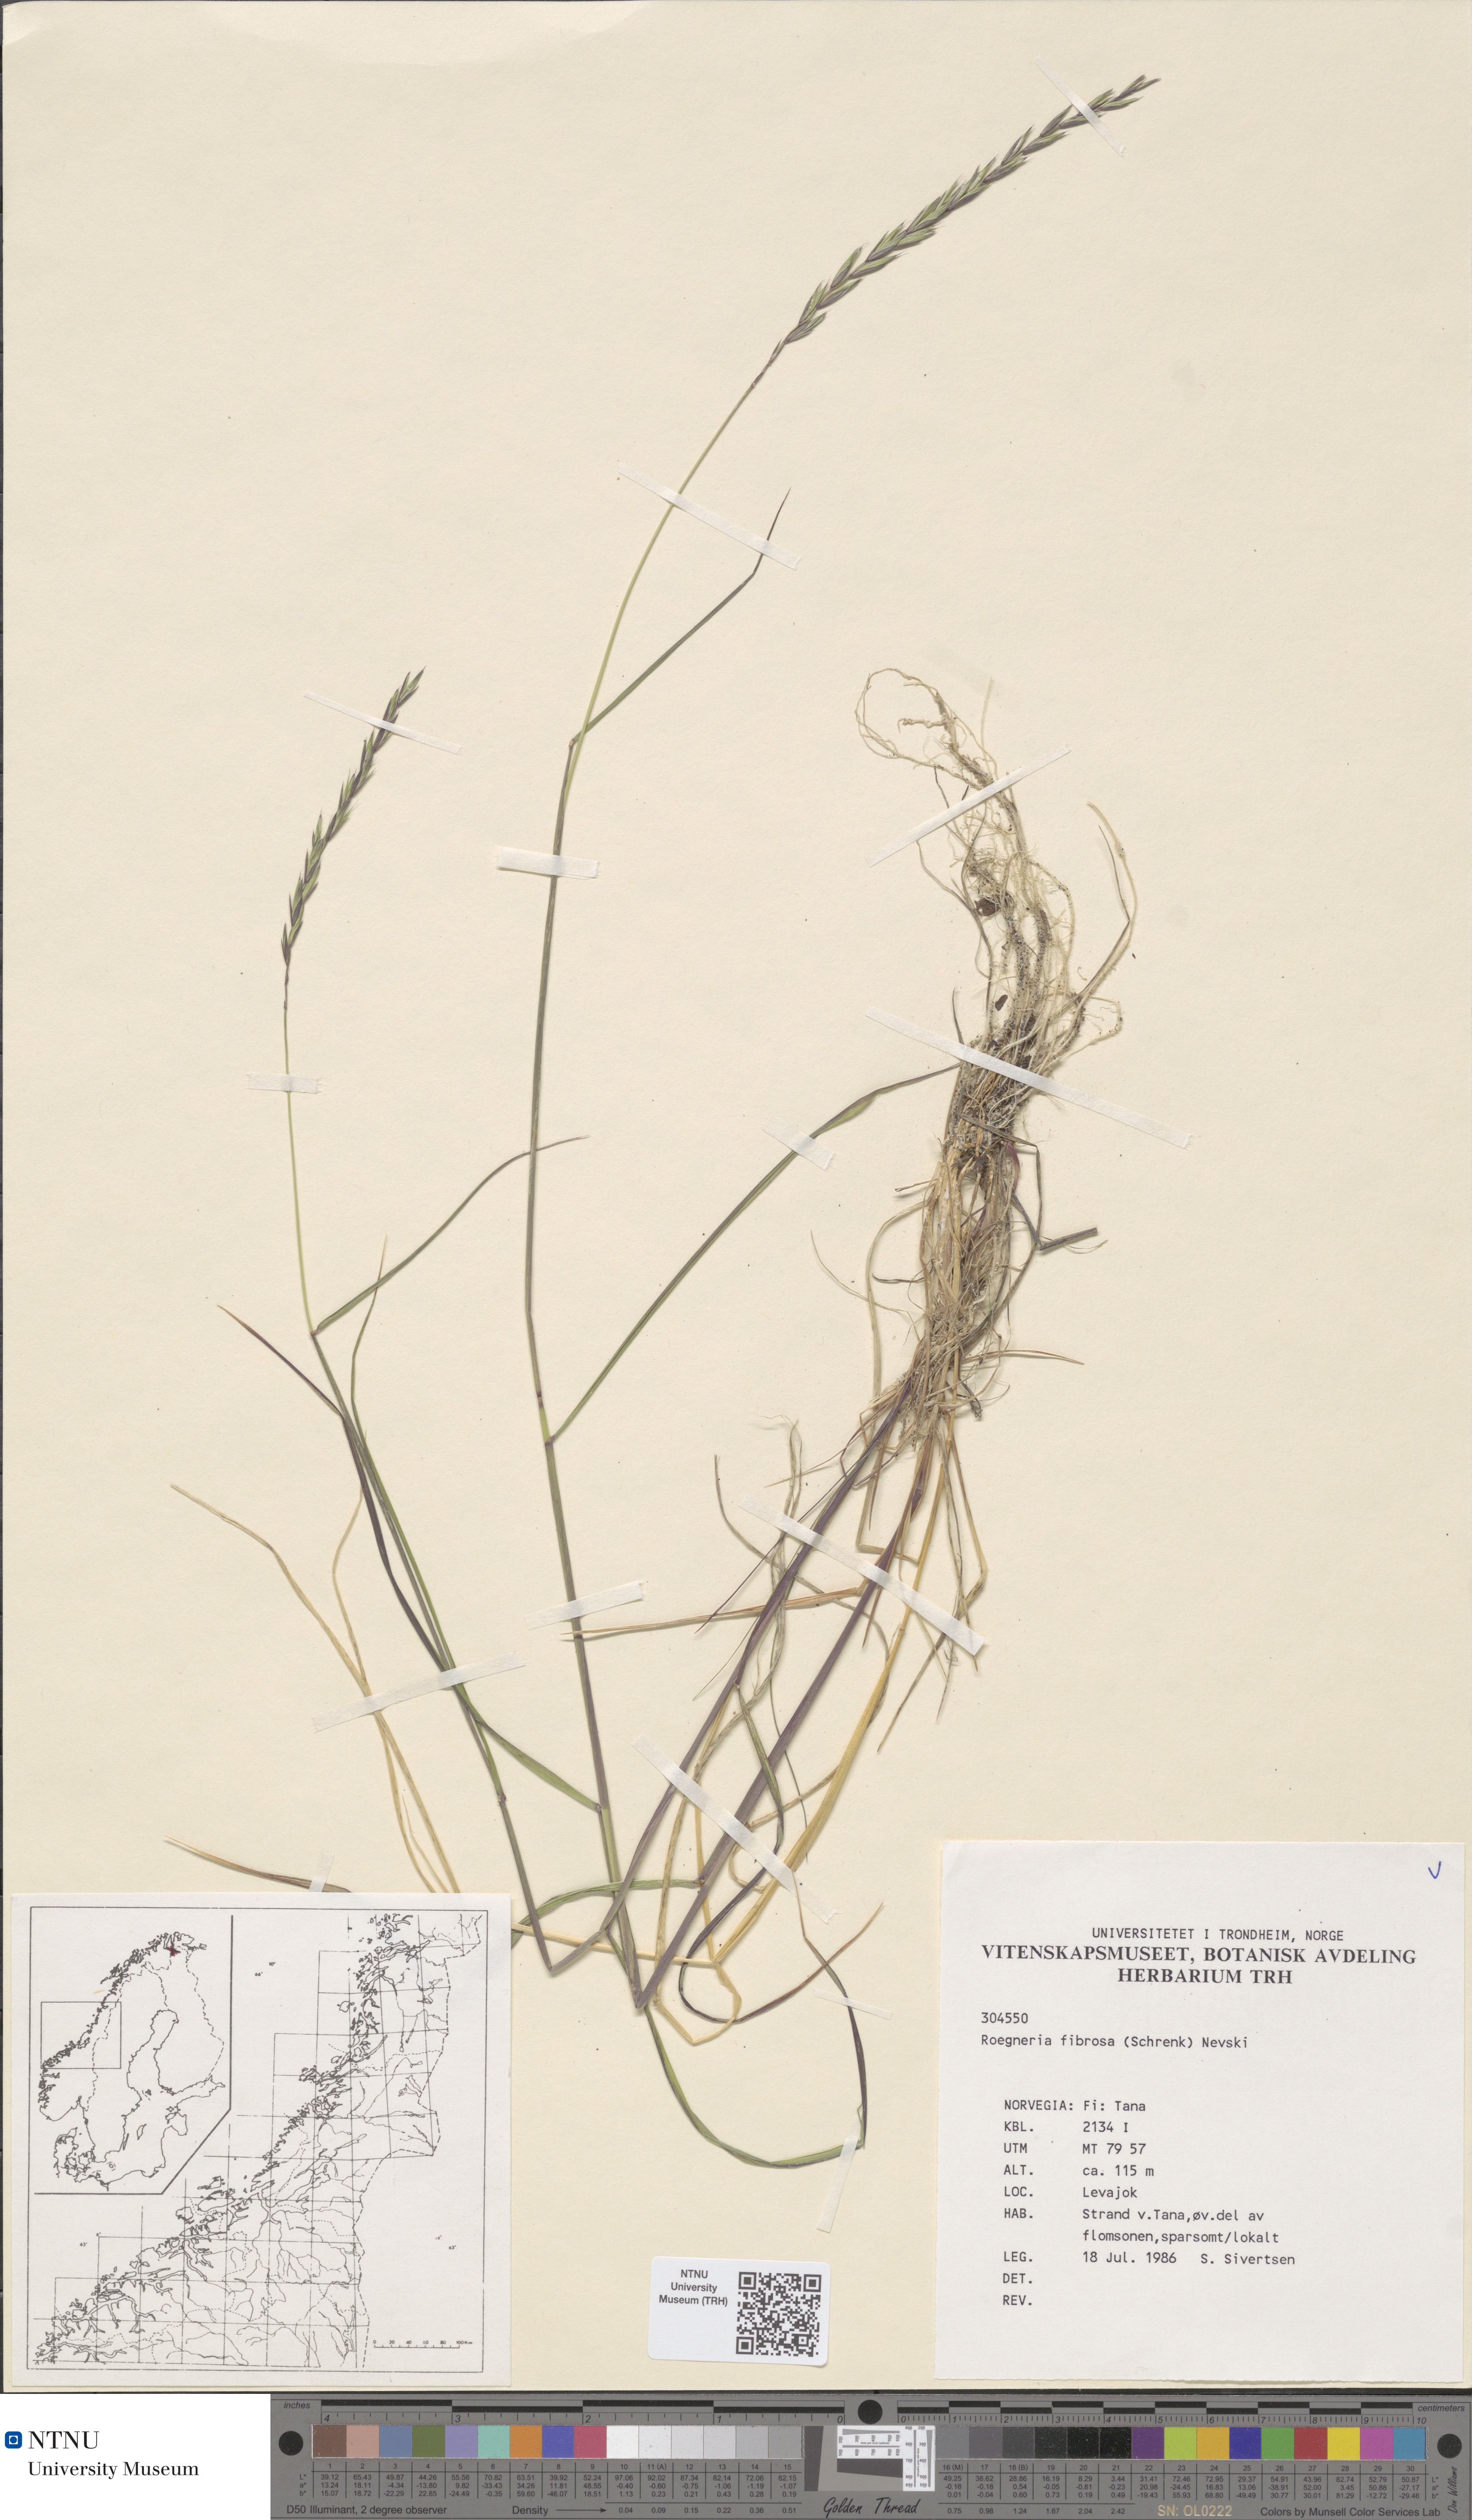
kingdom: Plantae
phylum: Tracheophyta
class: Liliopsida
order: Poales
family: Poaceae
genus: Elymus
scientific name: Elymus fibrosus
